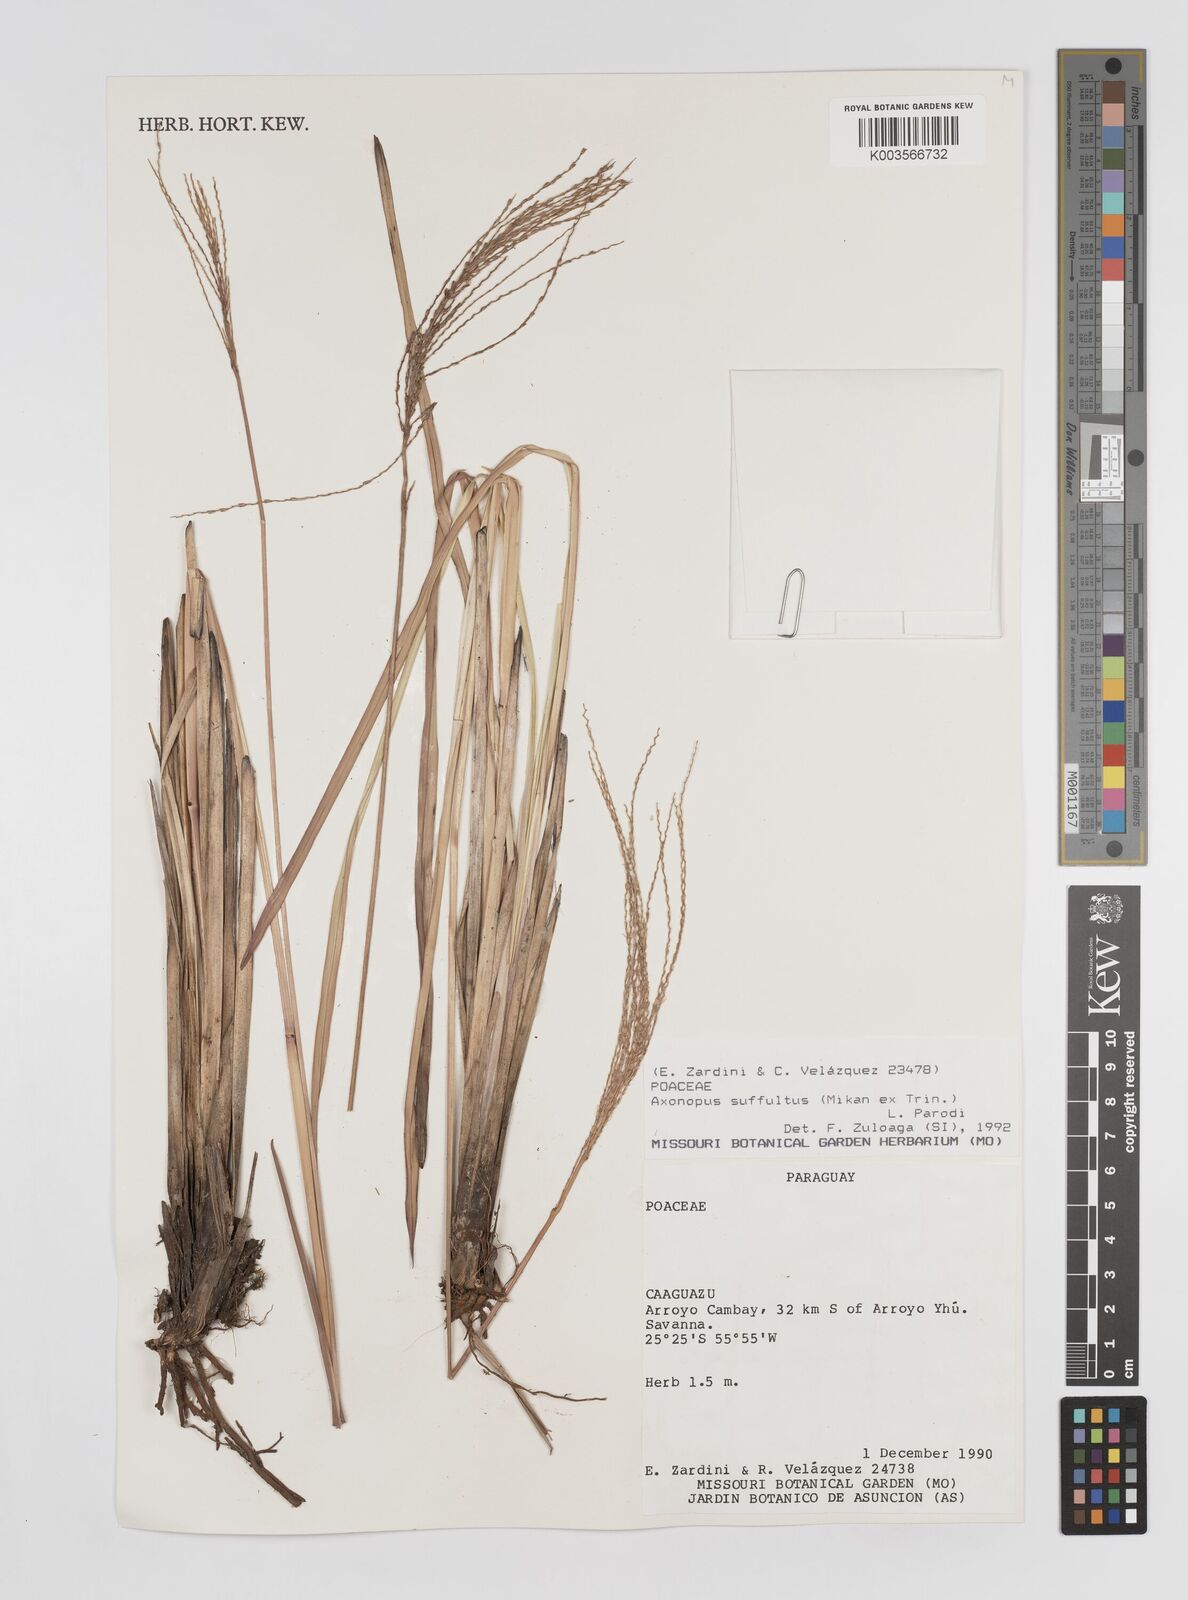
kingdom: Plantae
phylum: Tracheophyta
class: Liliopsida
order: Poales
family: Poaceae
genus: Axonopus
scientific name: Axonopus suffultus
